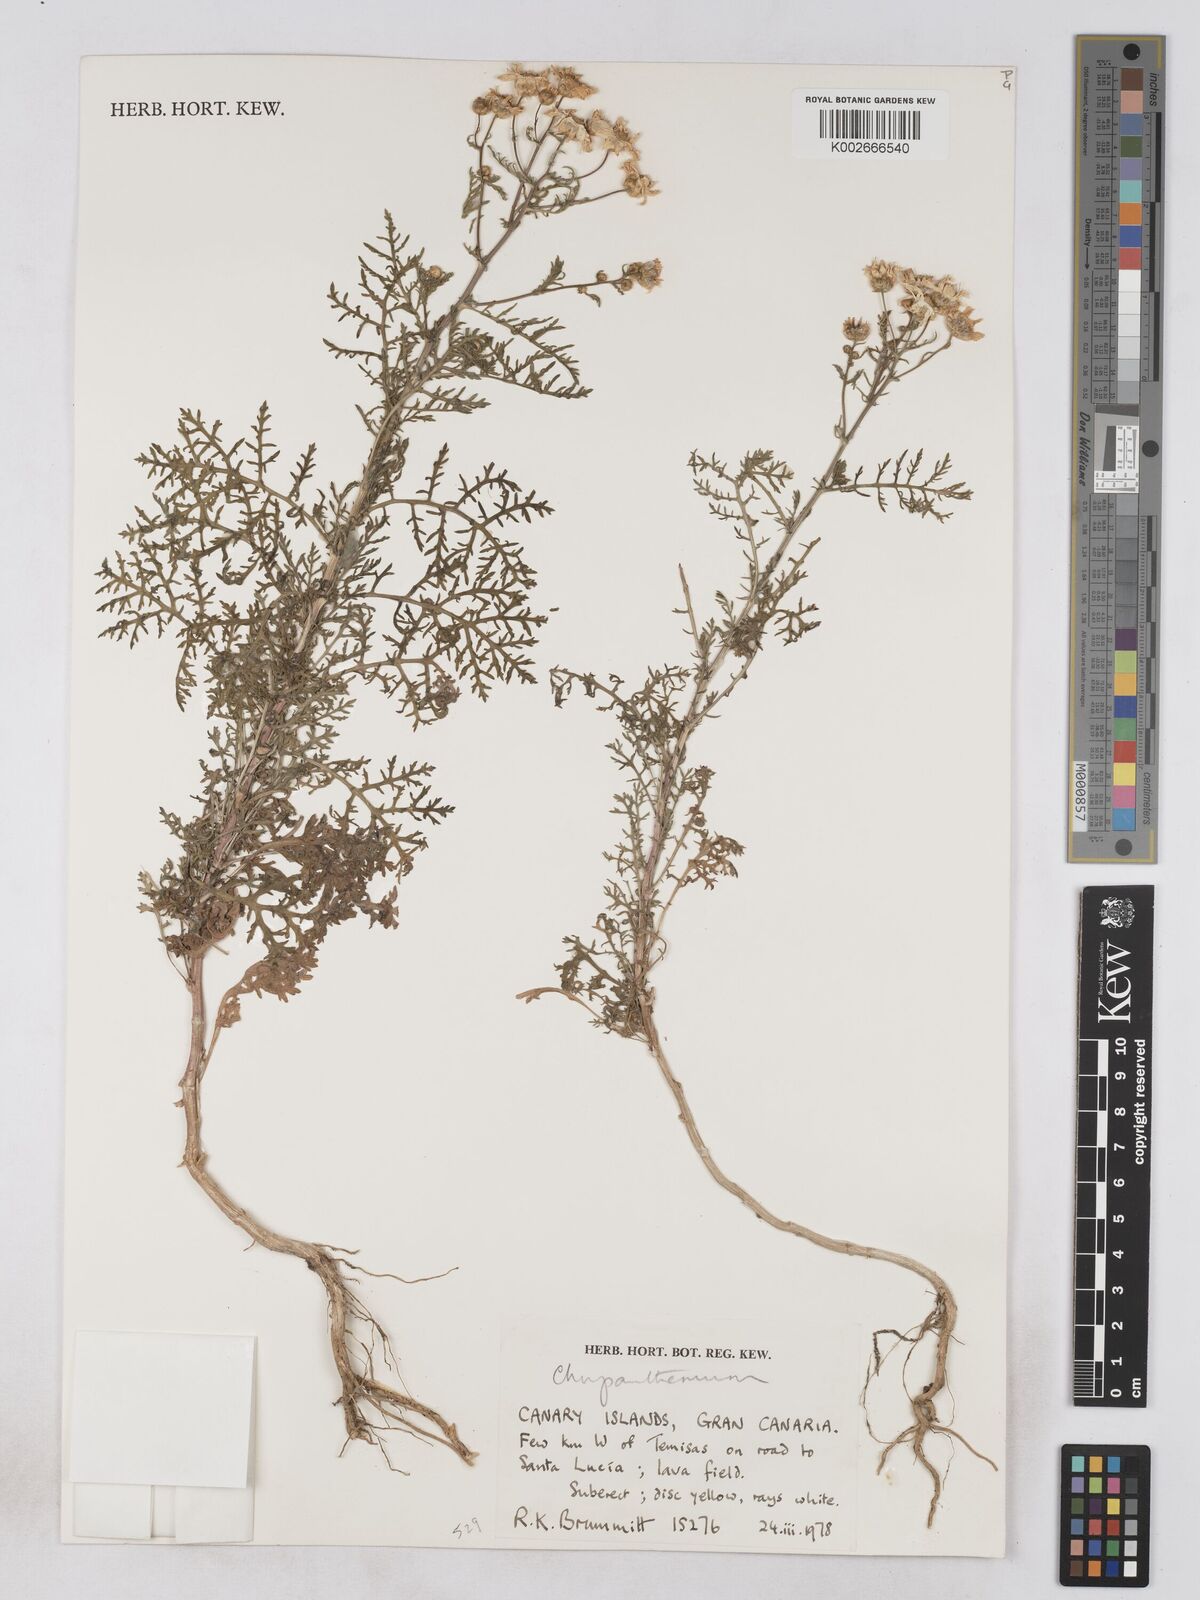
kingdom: Plantae
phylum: Tracheophyta
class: Magnoliopsida
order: Asterales
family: Asteraceae
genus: Argyranthemum
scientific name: Argyranthemum
